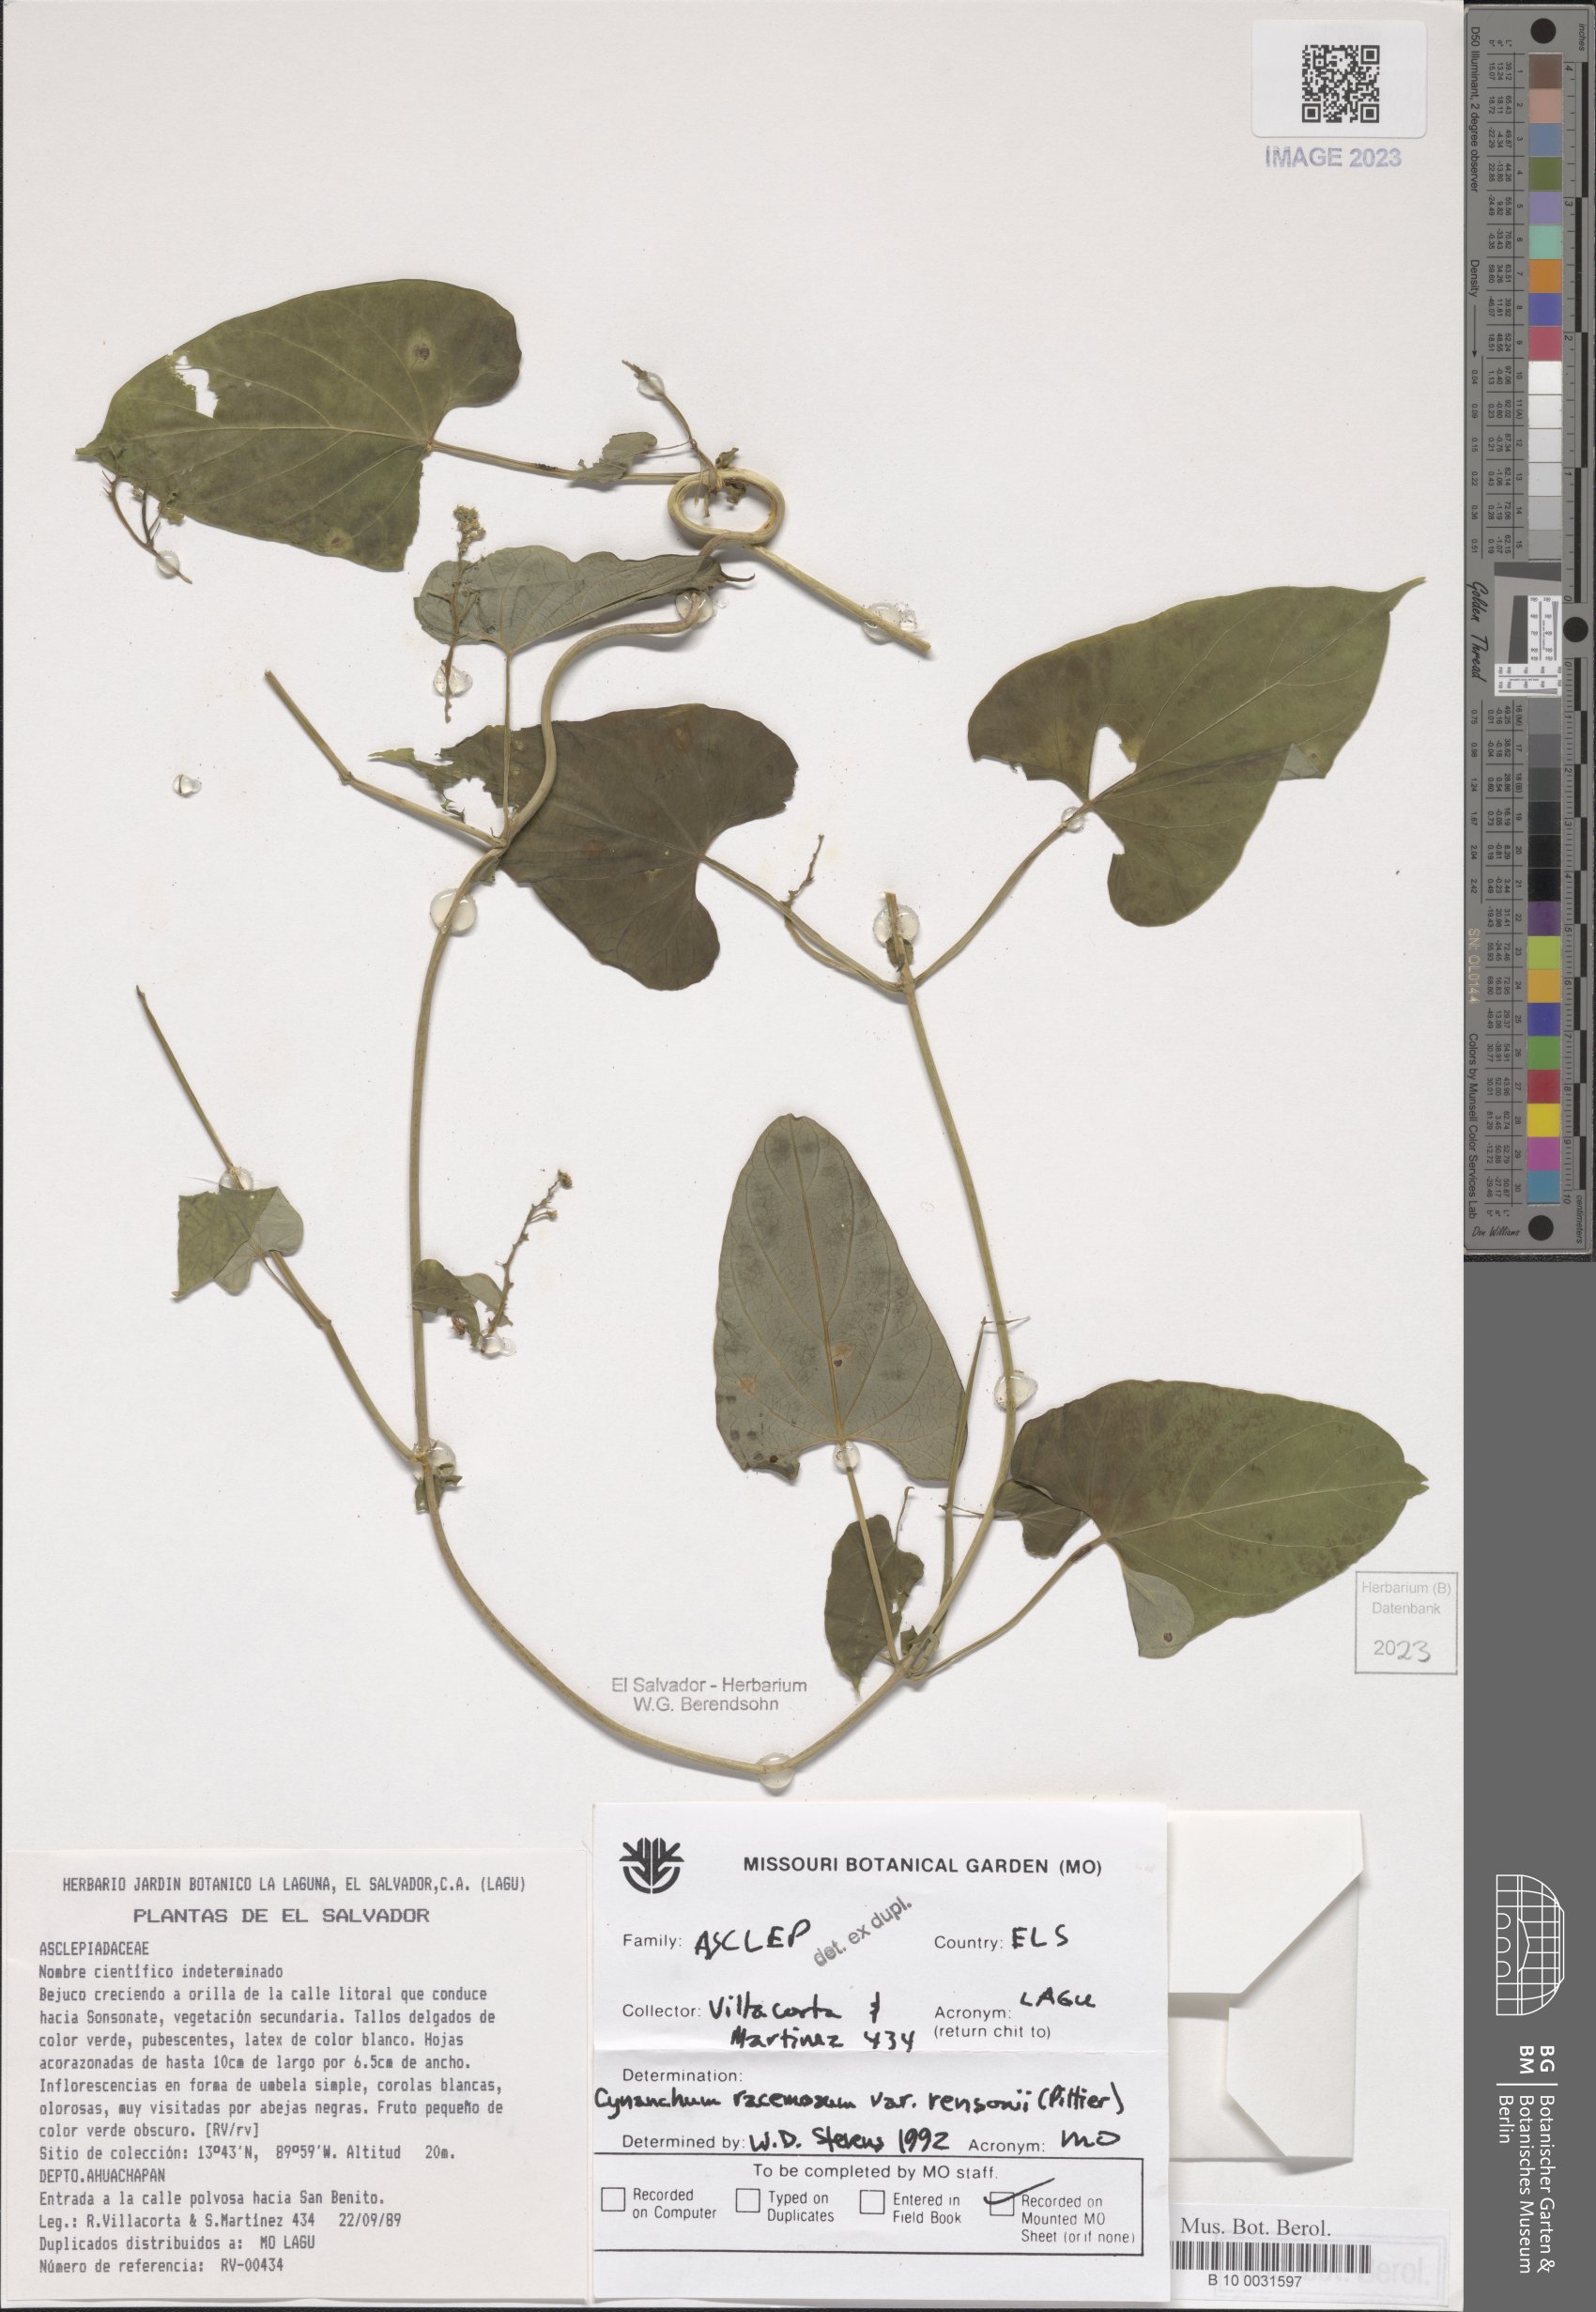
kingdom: Plantae
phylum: Tracheophyta
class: Magnoliopsida
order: Gentianales
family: Apocynaceae
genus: Cynanchum
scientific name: Cynanchum rensonii
